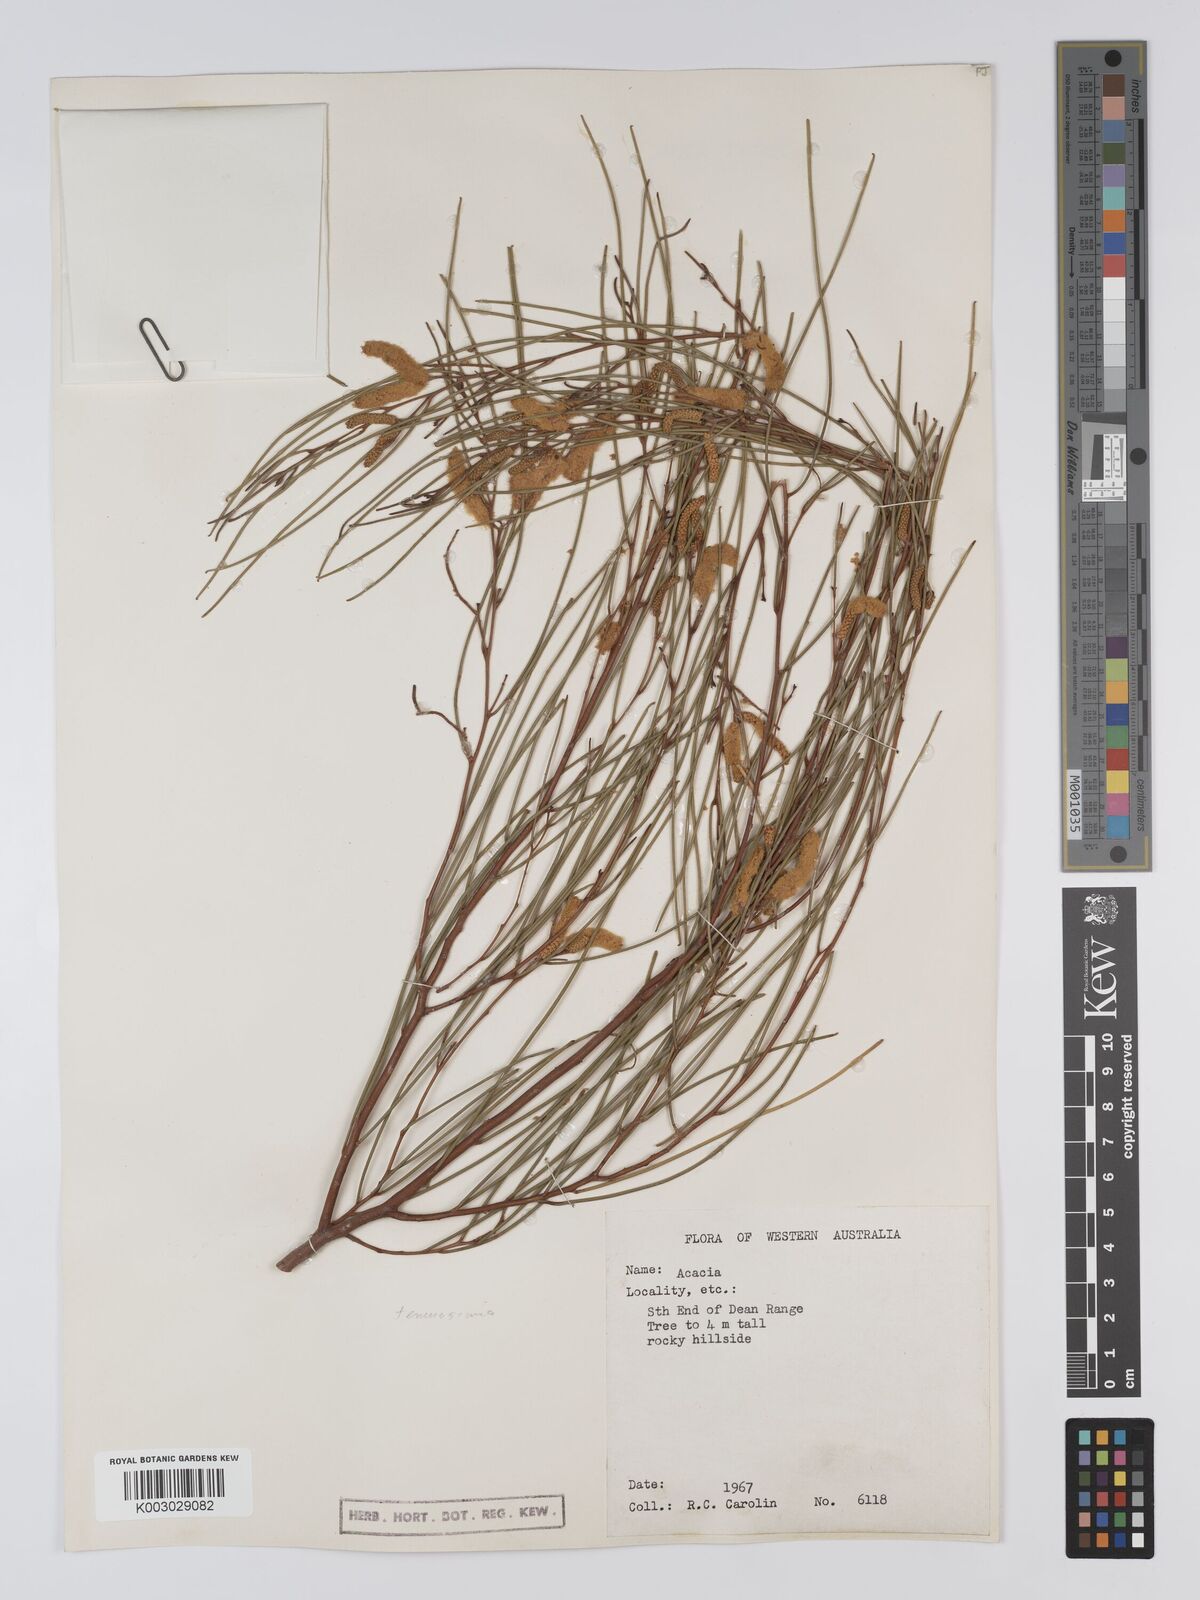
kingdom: Plantae
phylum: Tracheophyta
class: Magnoliopsida
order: Fabales
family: Fabaceae
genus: Acacia
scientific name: Acacia tenuissima
